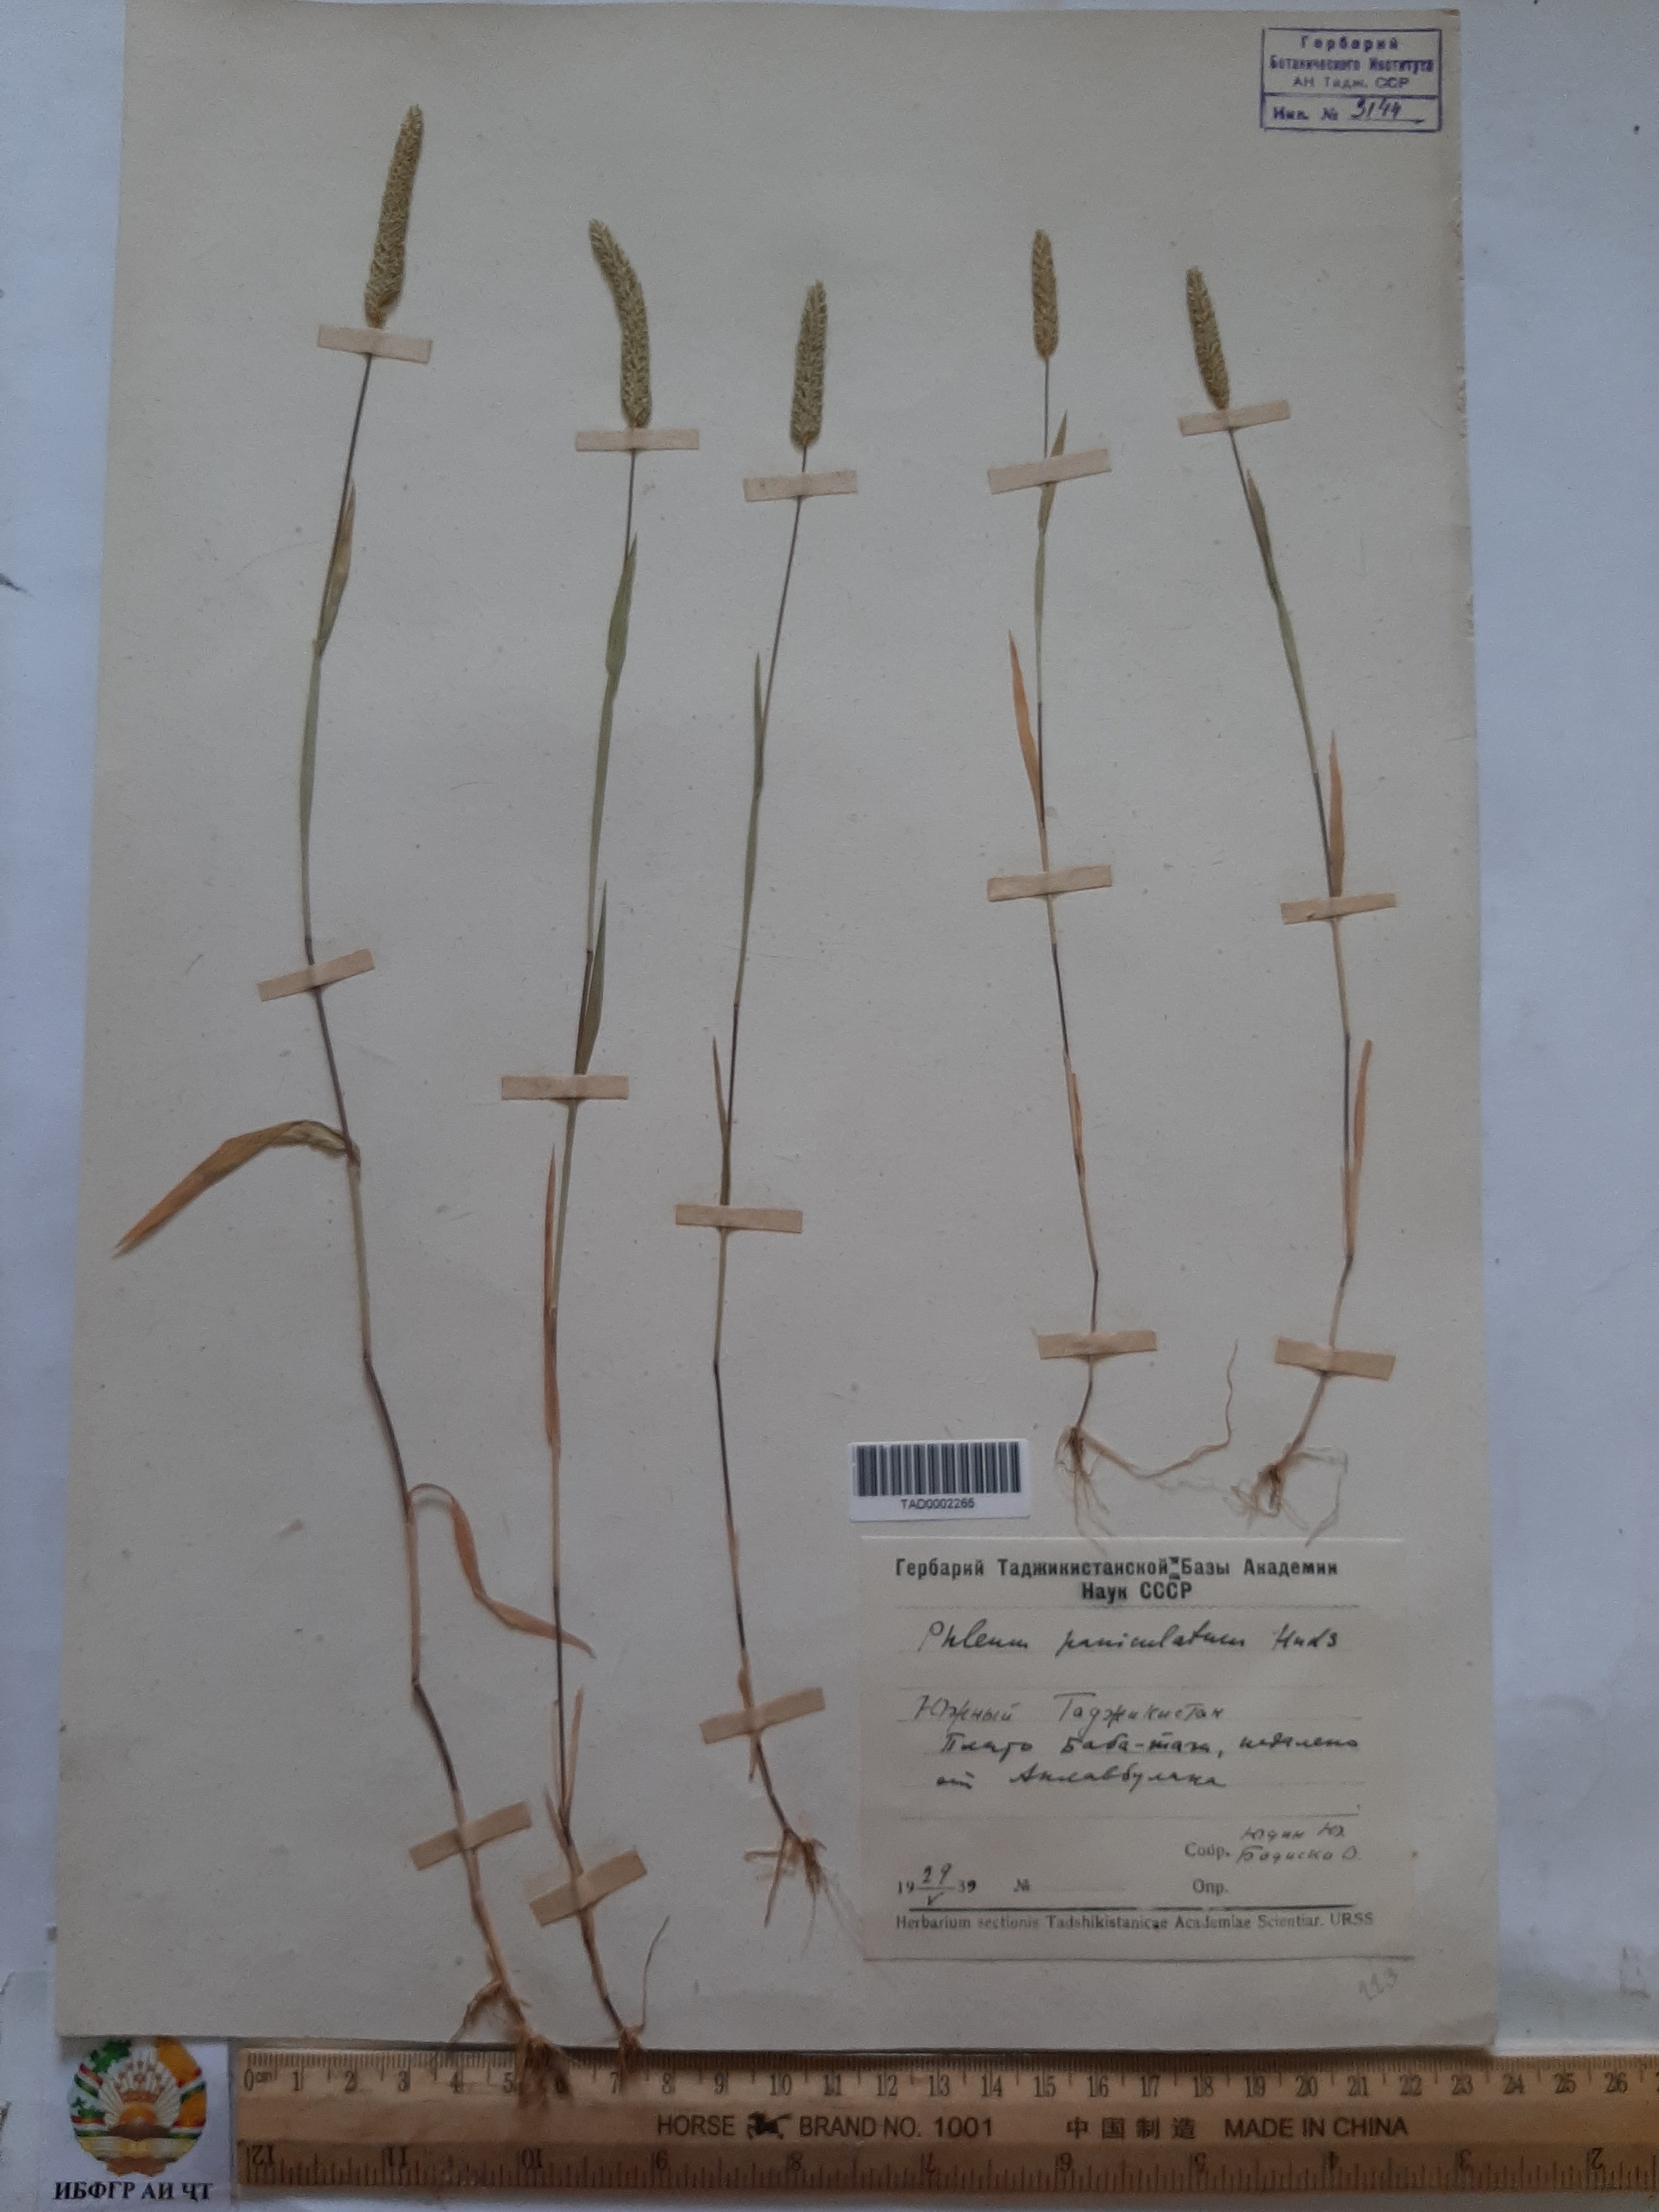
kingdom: Plantae
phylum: Tracheophyta
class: Liliopsida
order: Poales
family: Poaceae
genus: Phleum
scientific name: Phleum paniculatum
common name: British timothy
